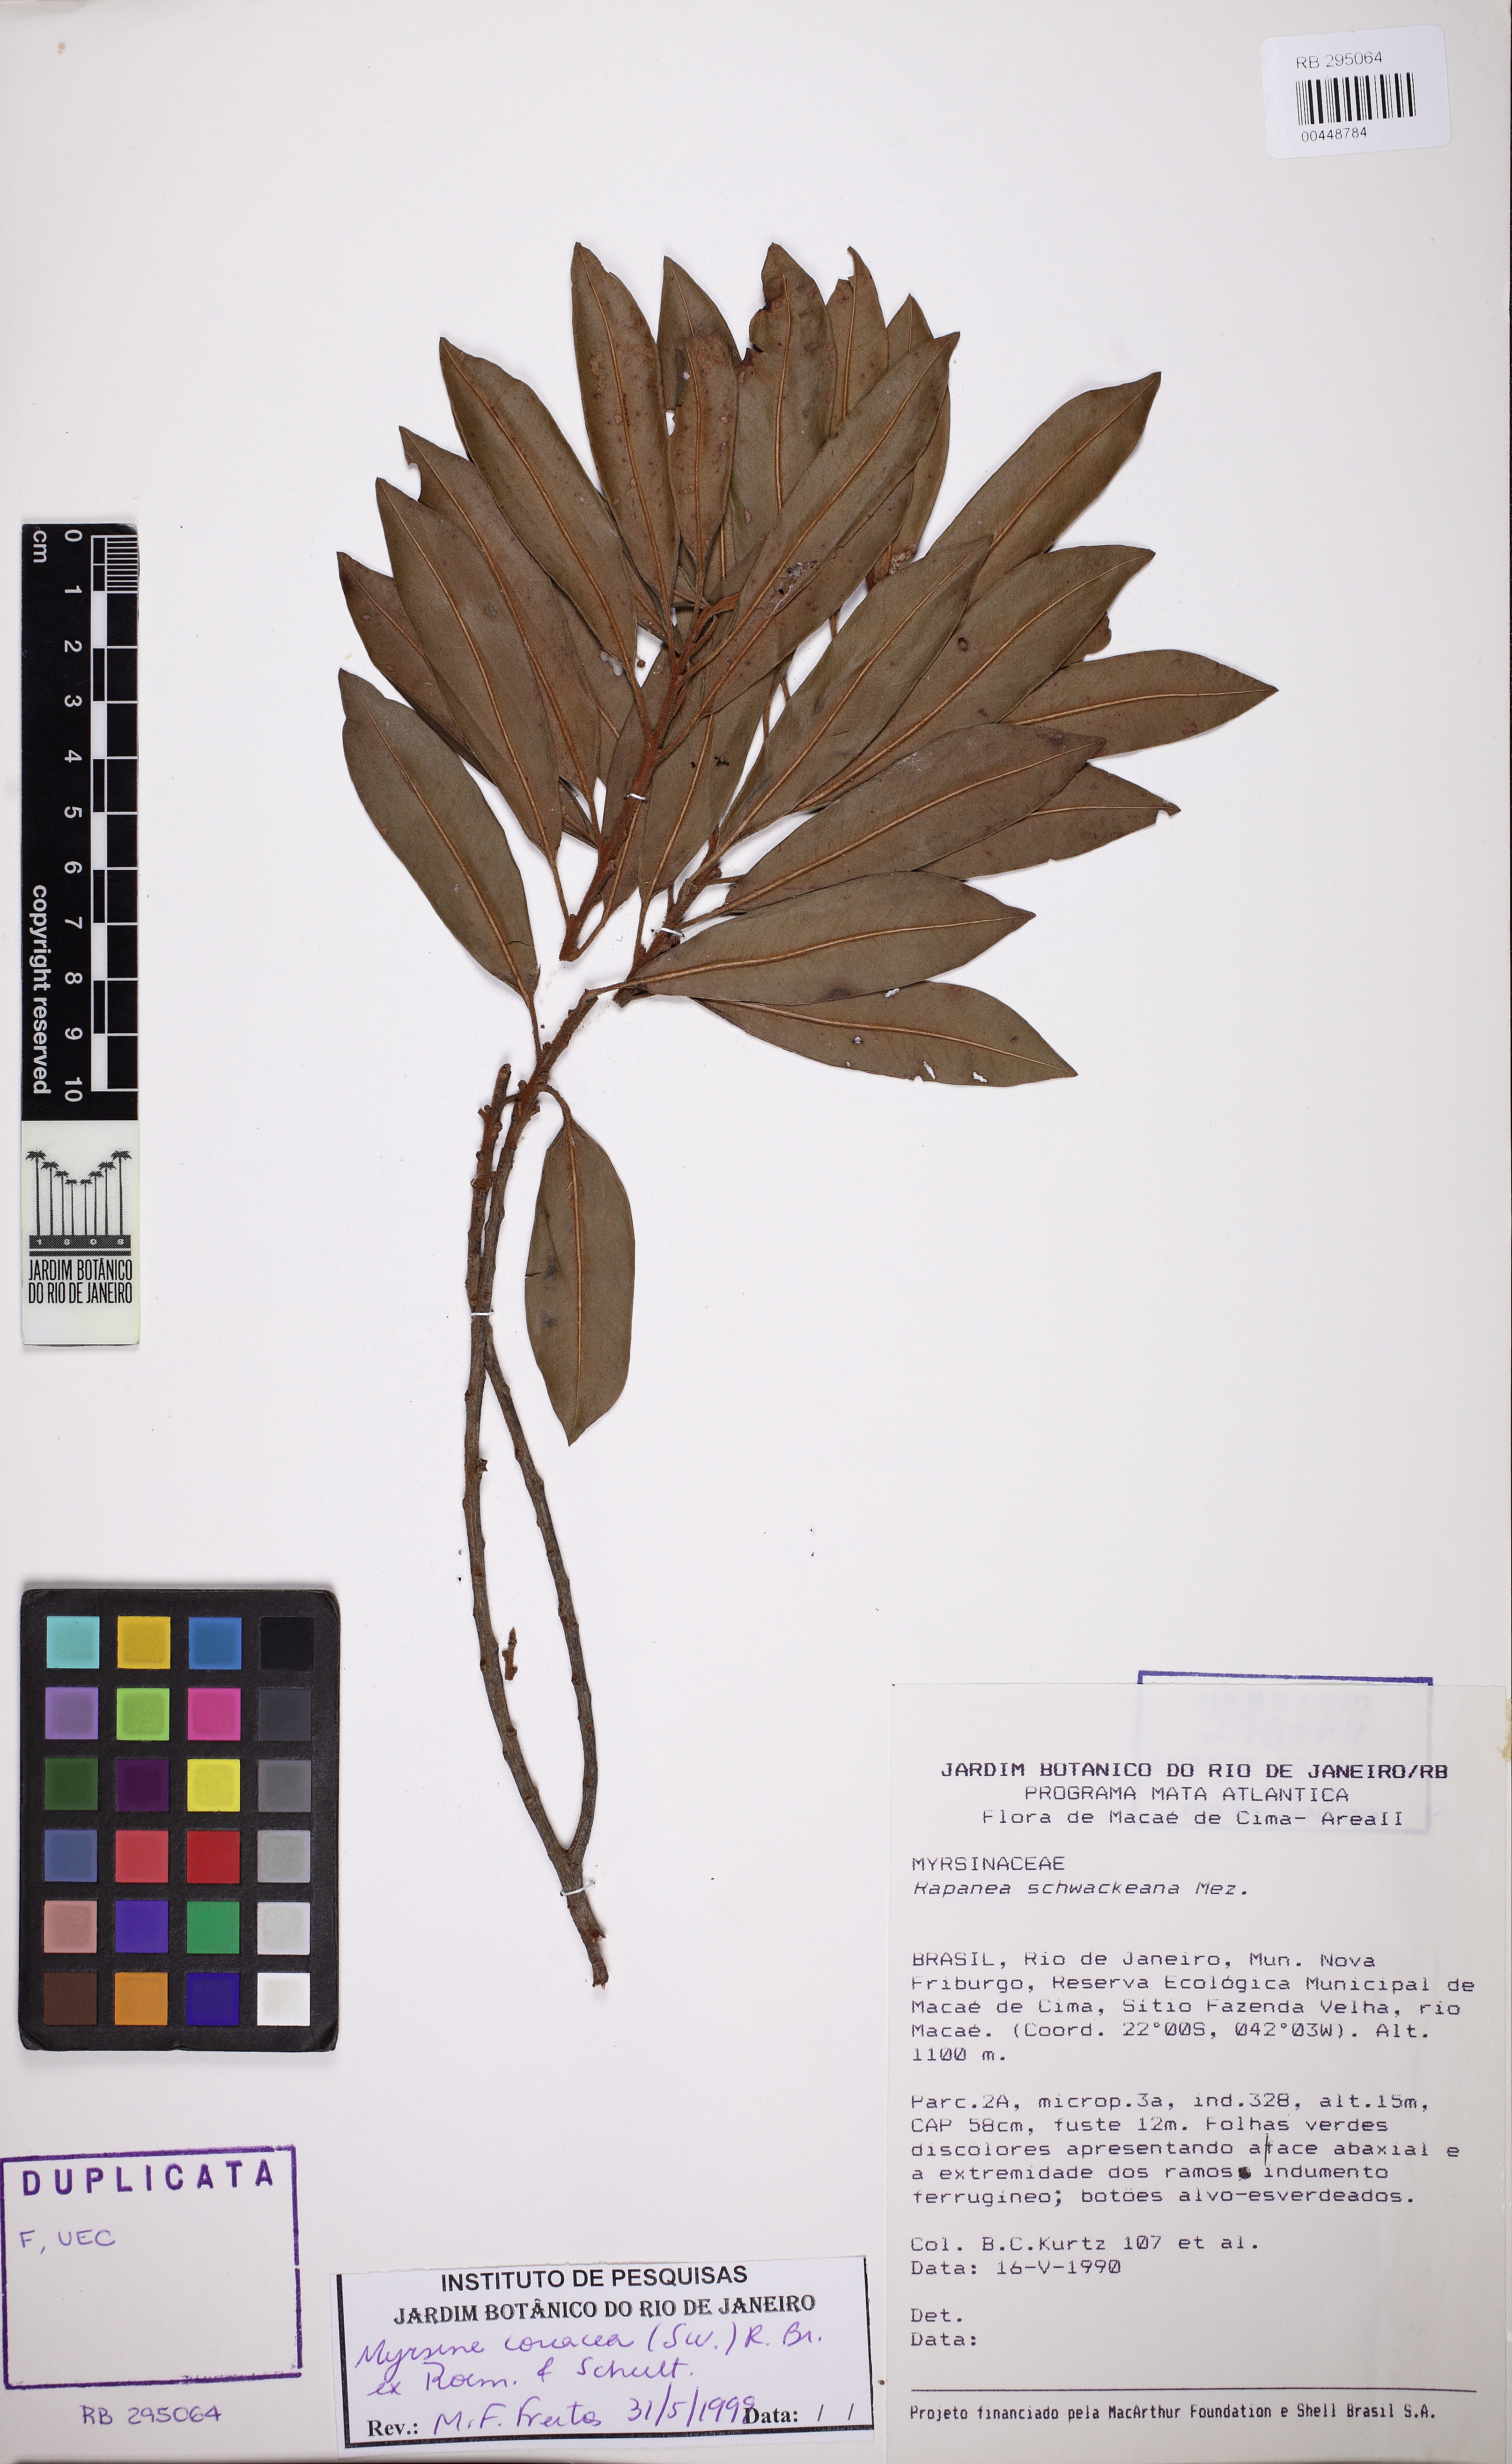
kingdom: Plantae
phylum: Tracheophyta
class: Magnoliopsida
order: Ericales
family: Primulaceae
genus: Myrsine
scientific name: Myrsine coriacea
